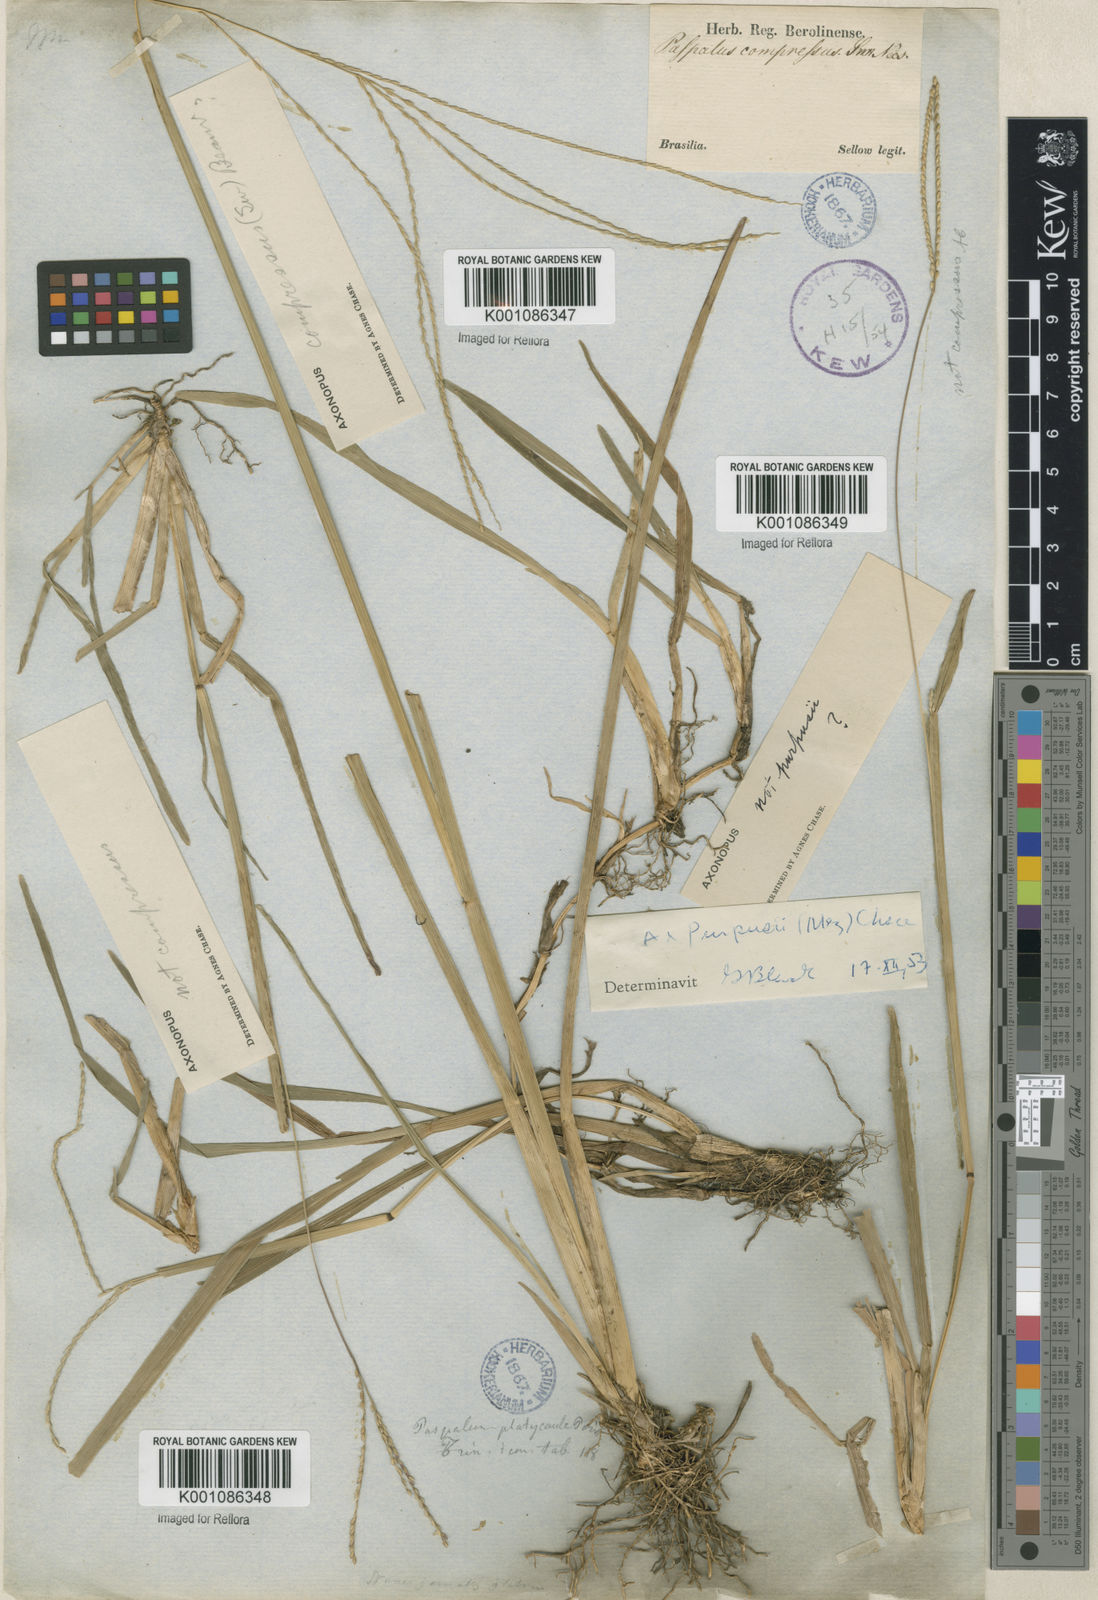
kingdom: Plantae
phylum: Tracheophyta
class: Liliopsida
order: Poales
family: Poaceae
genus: Axonopus
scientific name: Axonopus aureus
